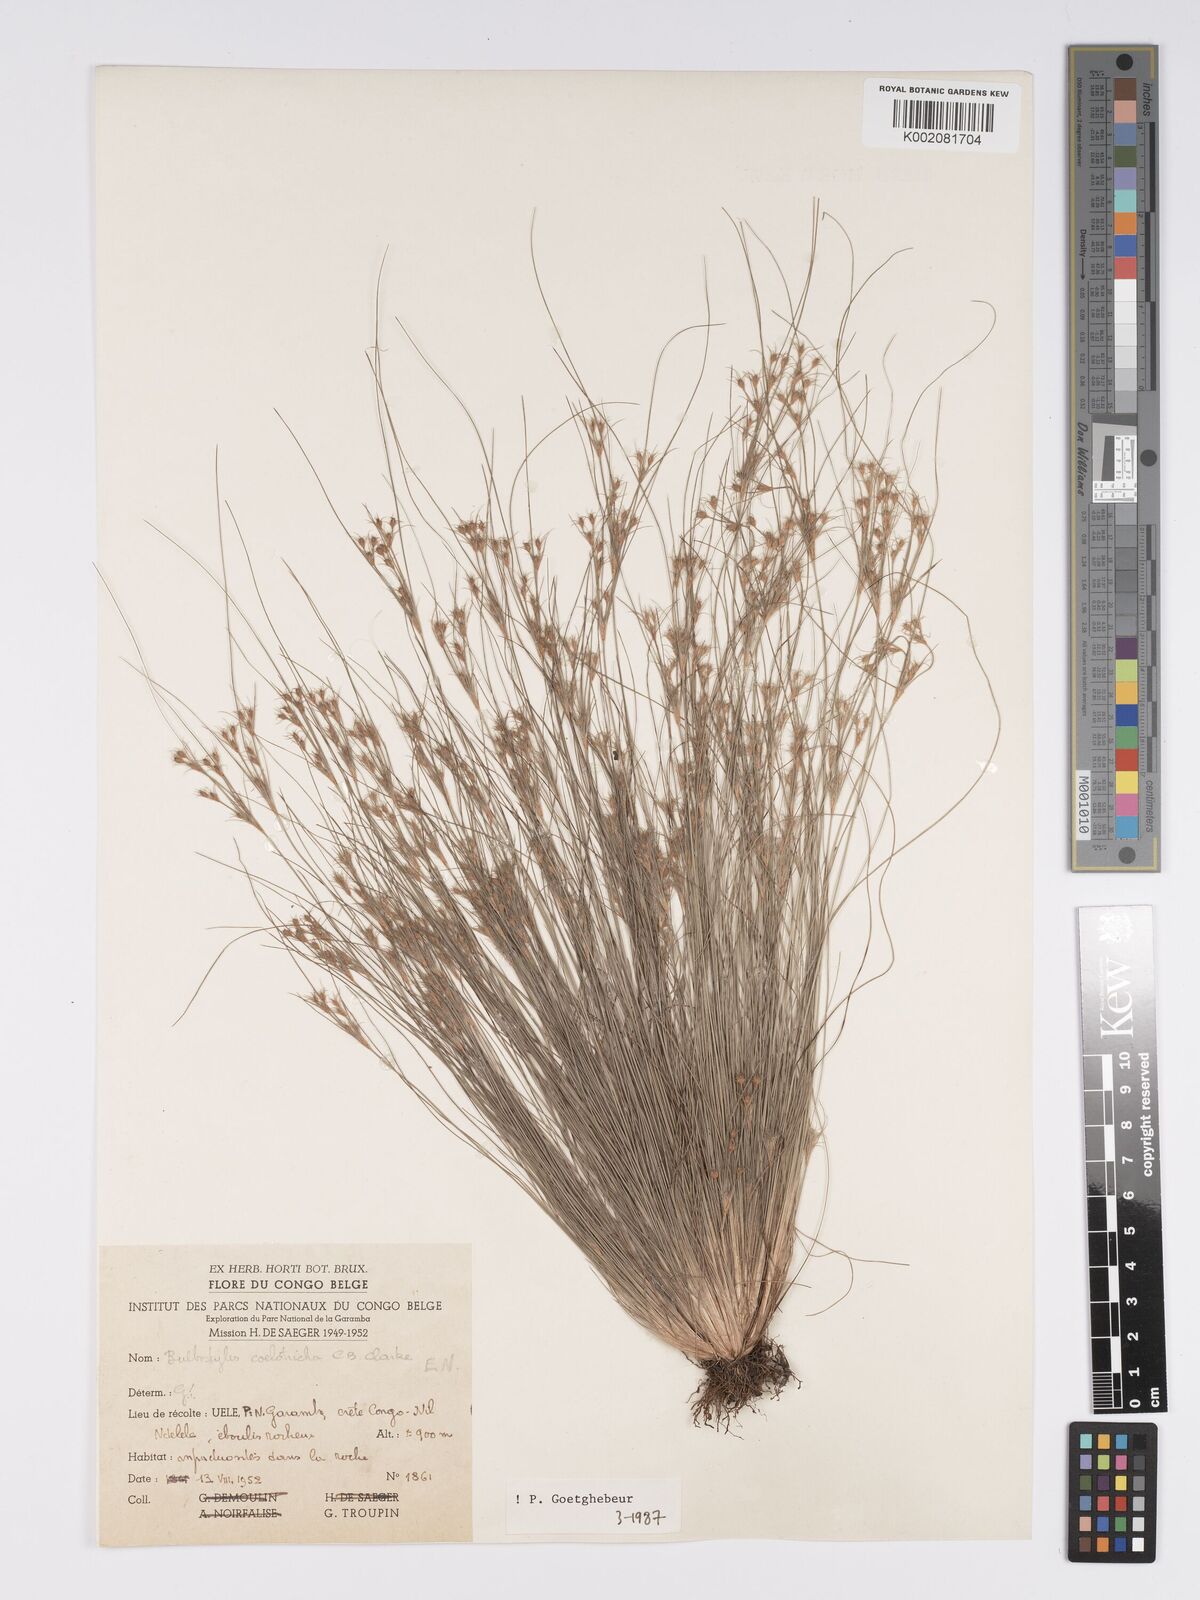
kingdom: Plantae
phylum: Tracheophyta
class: Liliopsida
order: Poales
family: Cyperaceae
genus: Bulbostylis
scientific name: Bulbostylis coleotricha
